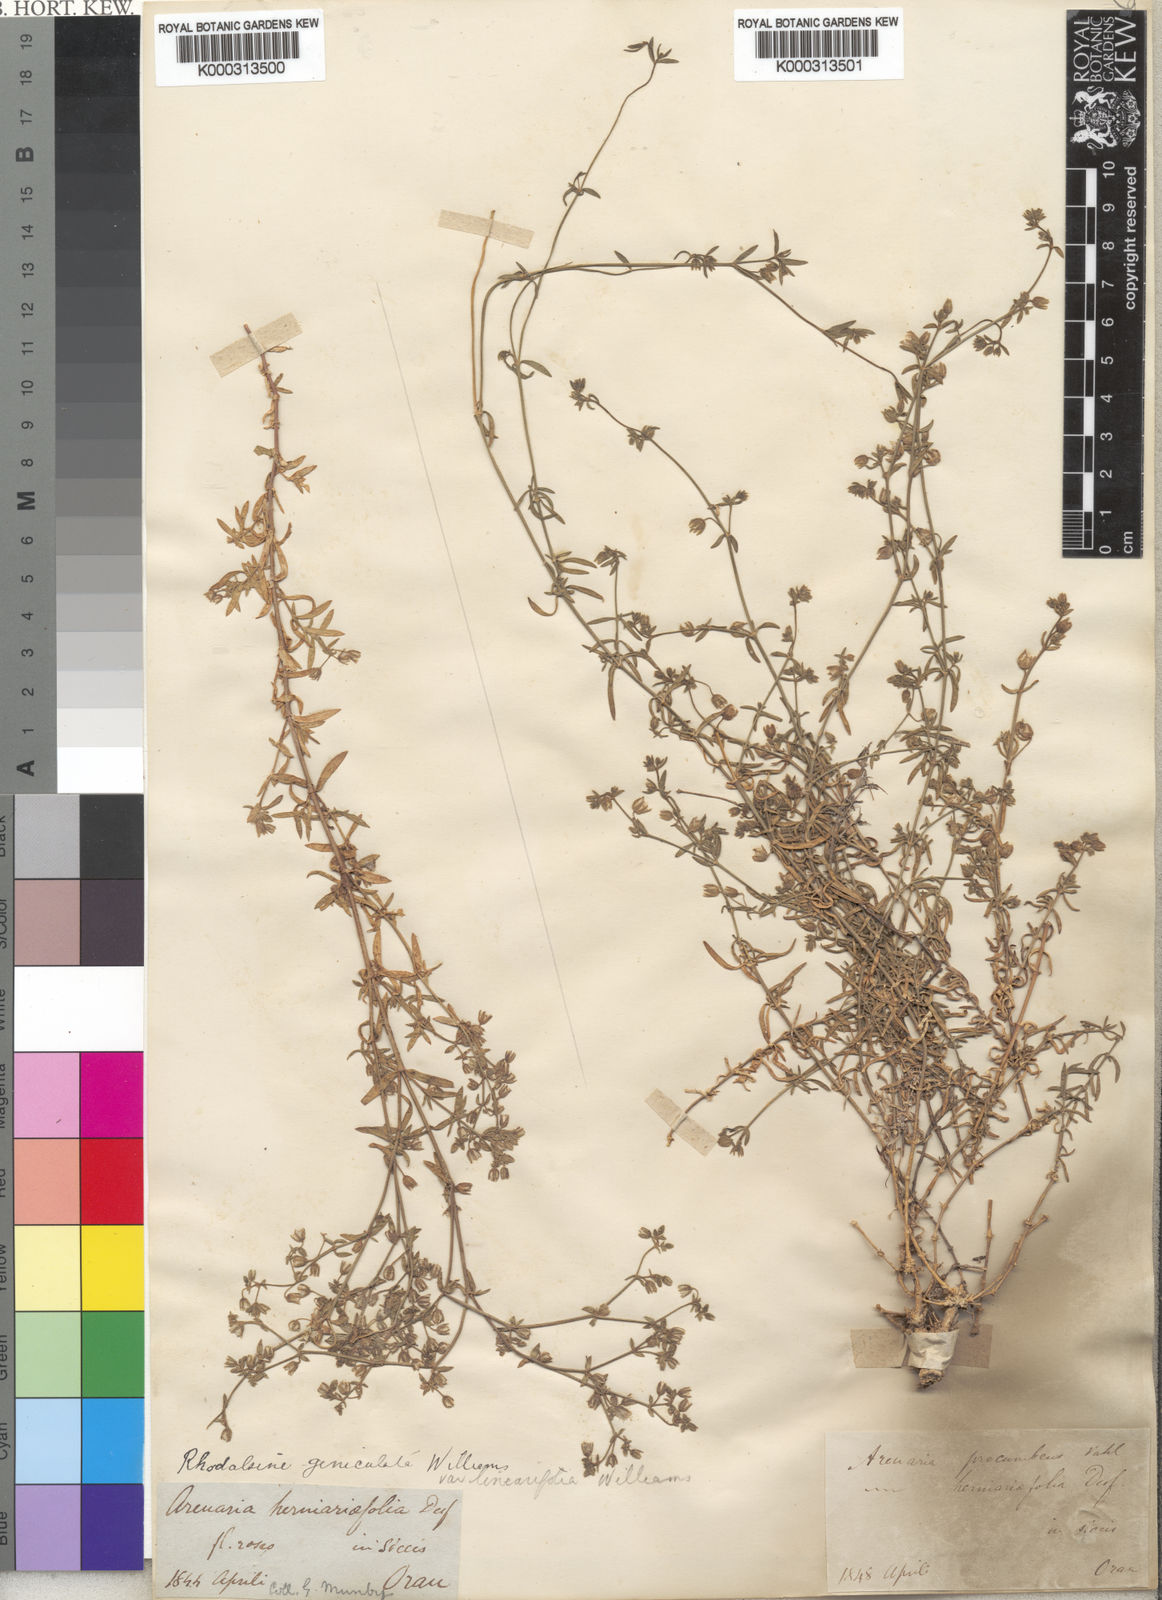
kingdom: Plantae
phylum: Tracheophyta
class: Magnoliopsida
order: Caryophyllales
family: Caryophyllaceae
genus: Rhodalsine
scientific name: Rhodalsine geniculata
